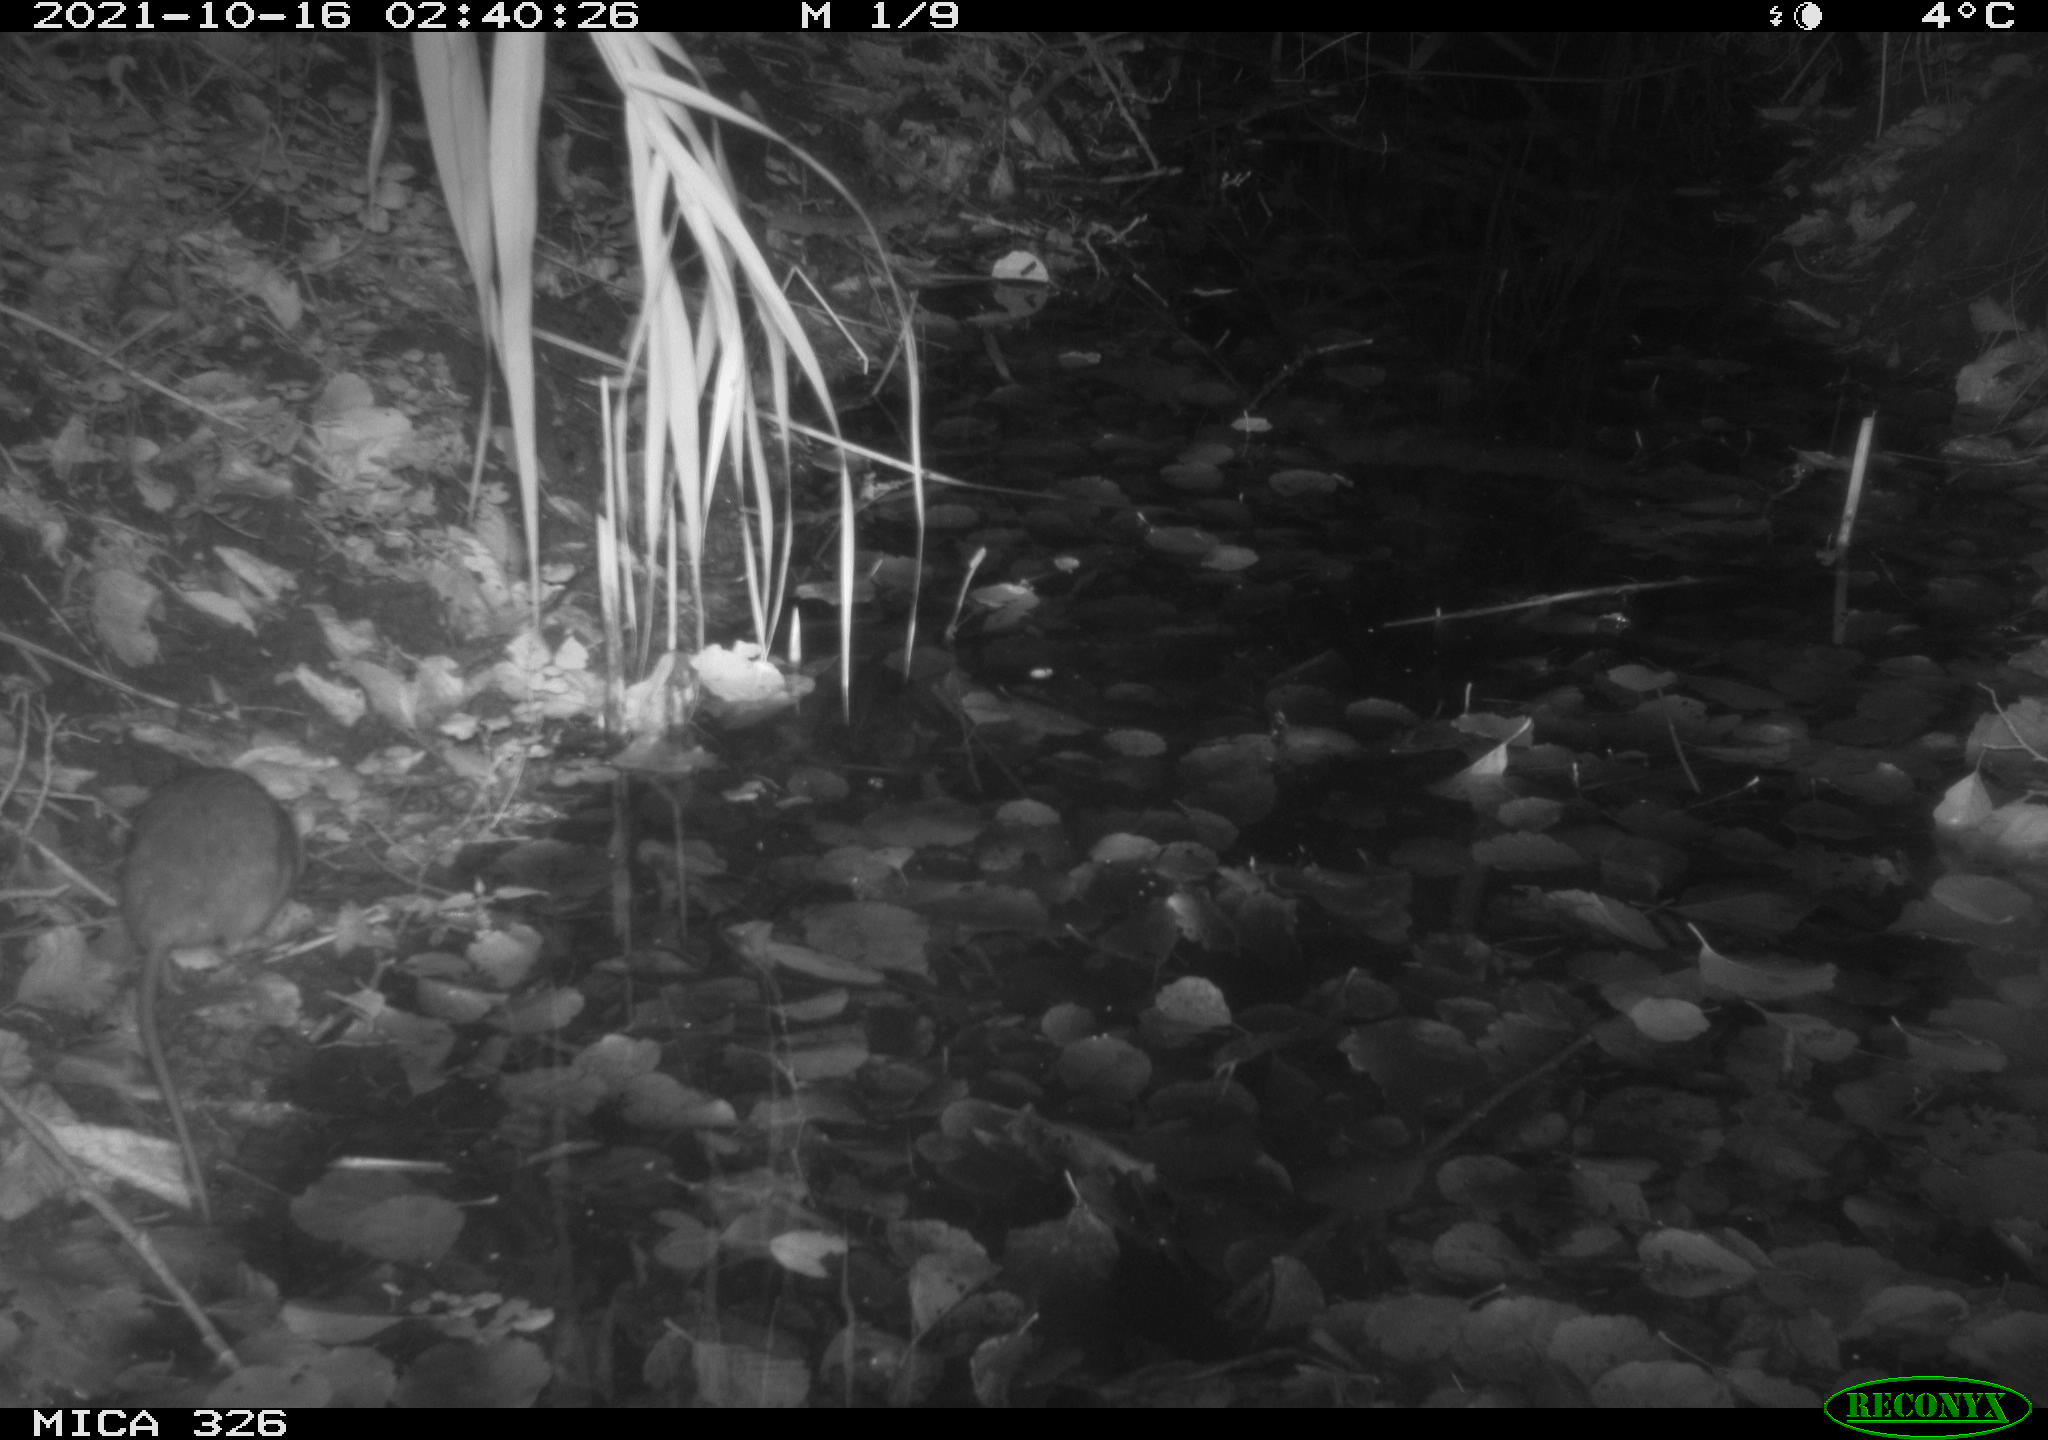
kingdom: Animalia
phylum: Chordata
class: Mammalia
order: Rodentia
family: Muridae
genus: Rattus
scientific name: Rattus norvegicus
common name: Brown rat
